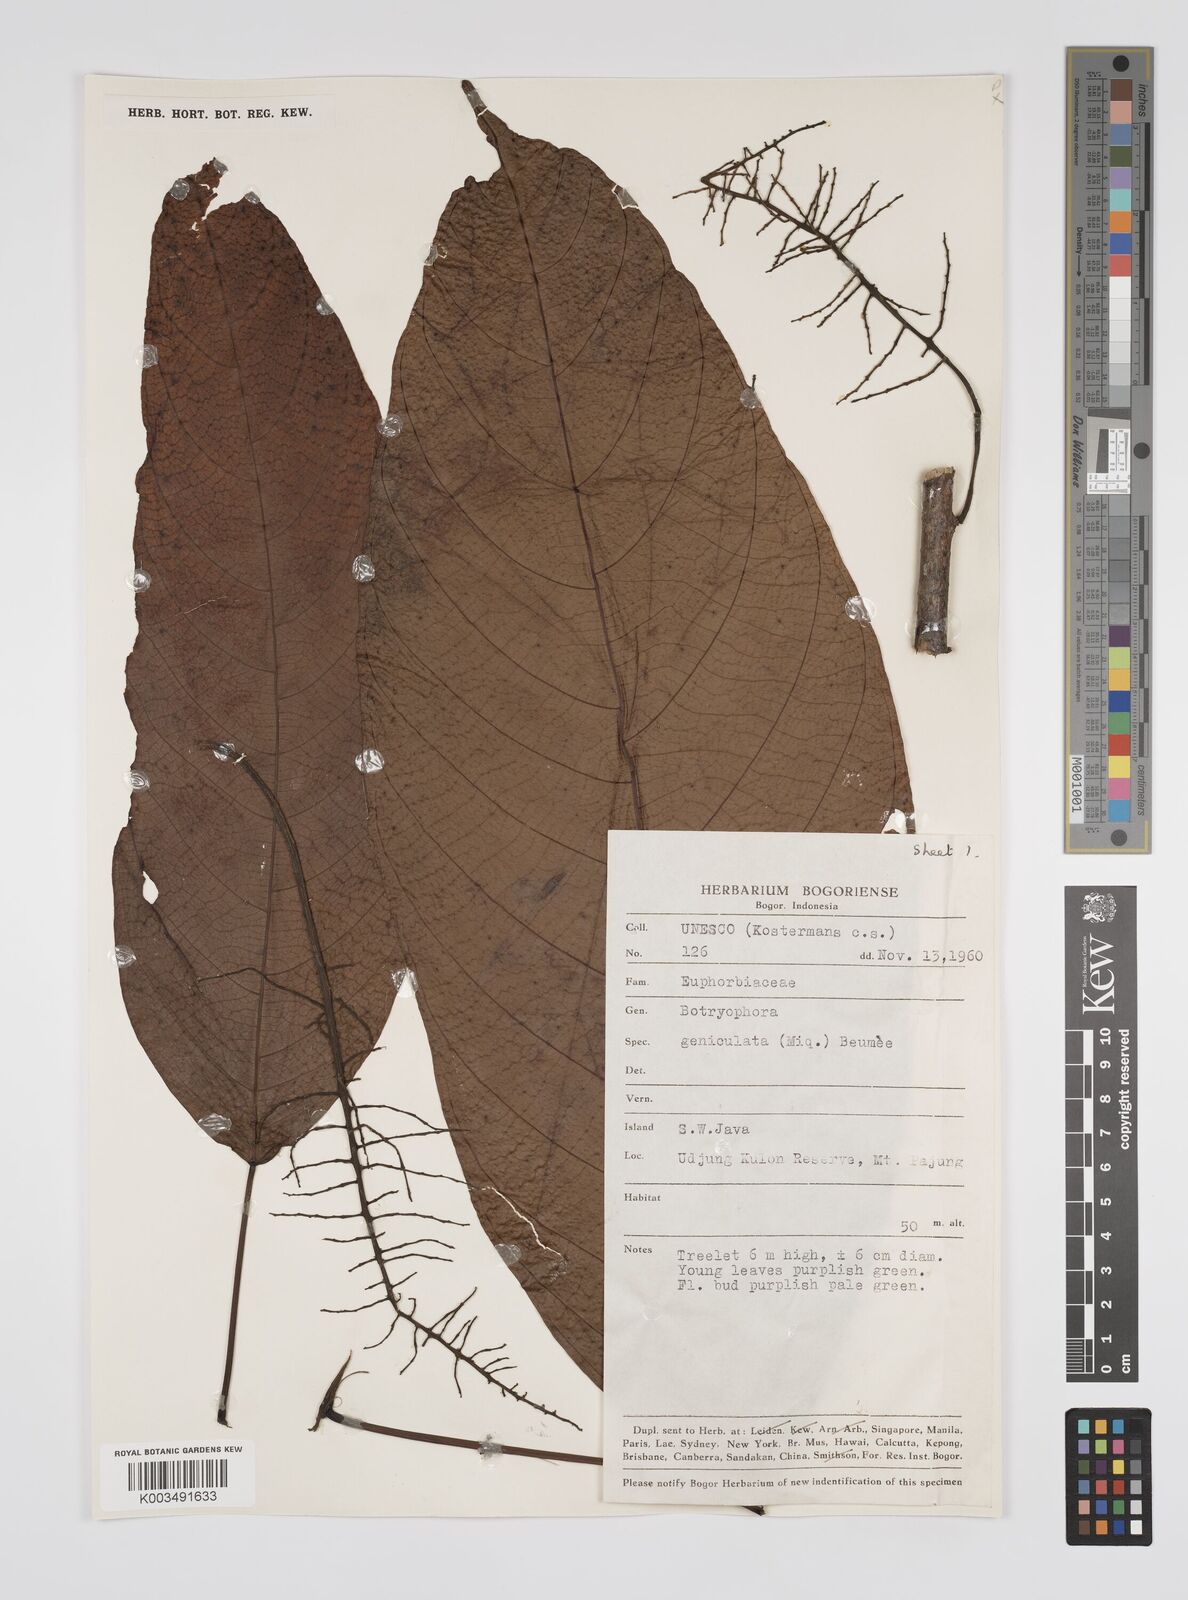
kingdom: Plantae
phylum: Tracheophyta
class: Magnoliopsida
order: Malpighiales
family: Euphorbiaceae
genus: Botryophora
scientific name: Botryophora geniculata
